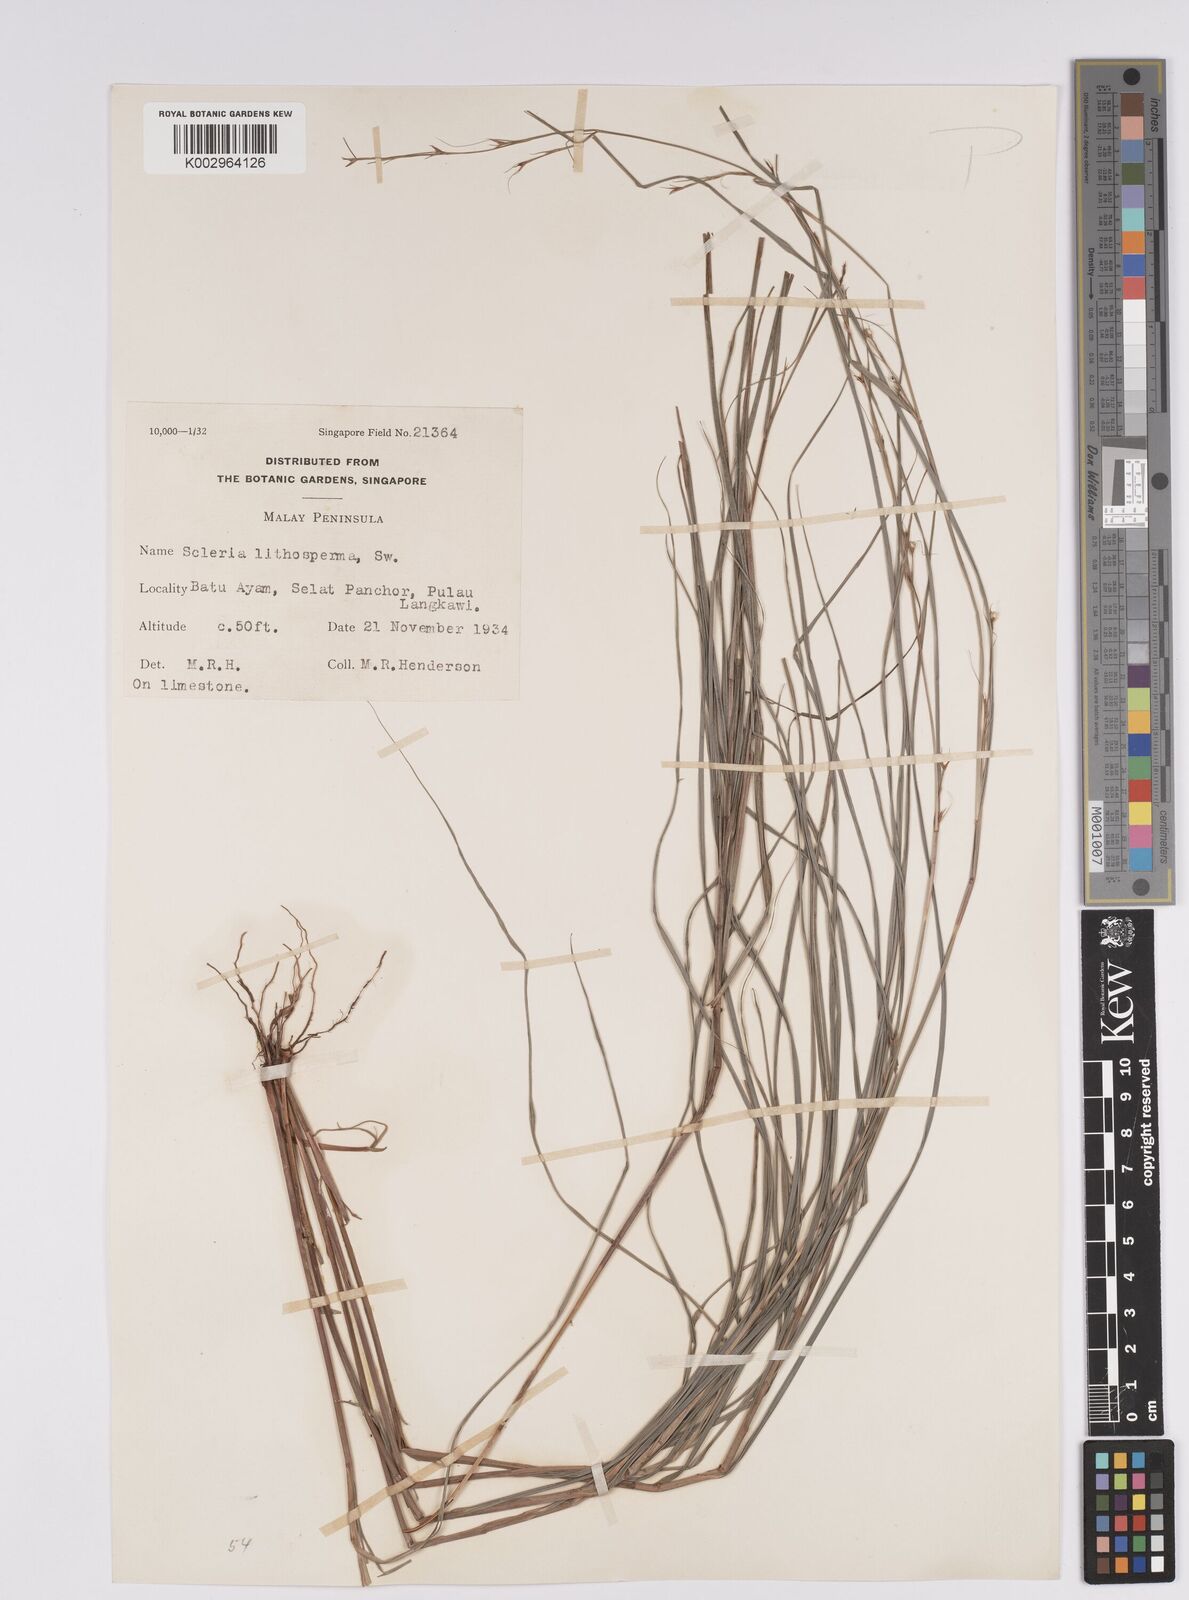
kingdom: Plantae
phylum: Tracheophyta
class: Liliopsida
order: Poales
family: Cyperaceae
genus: Scleria
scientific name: Scleria lithosperma
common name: Florida keys nut-rush
